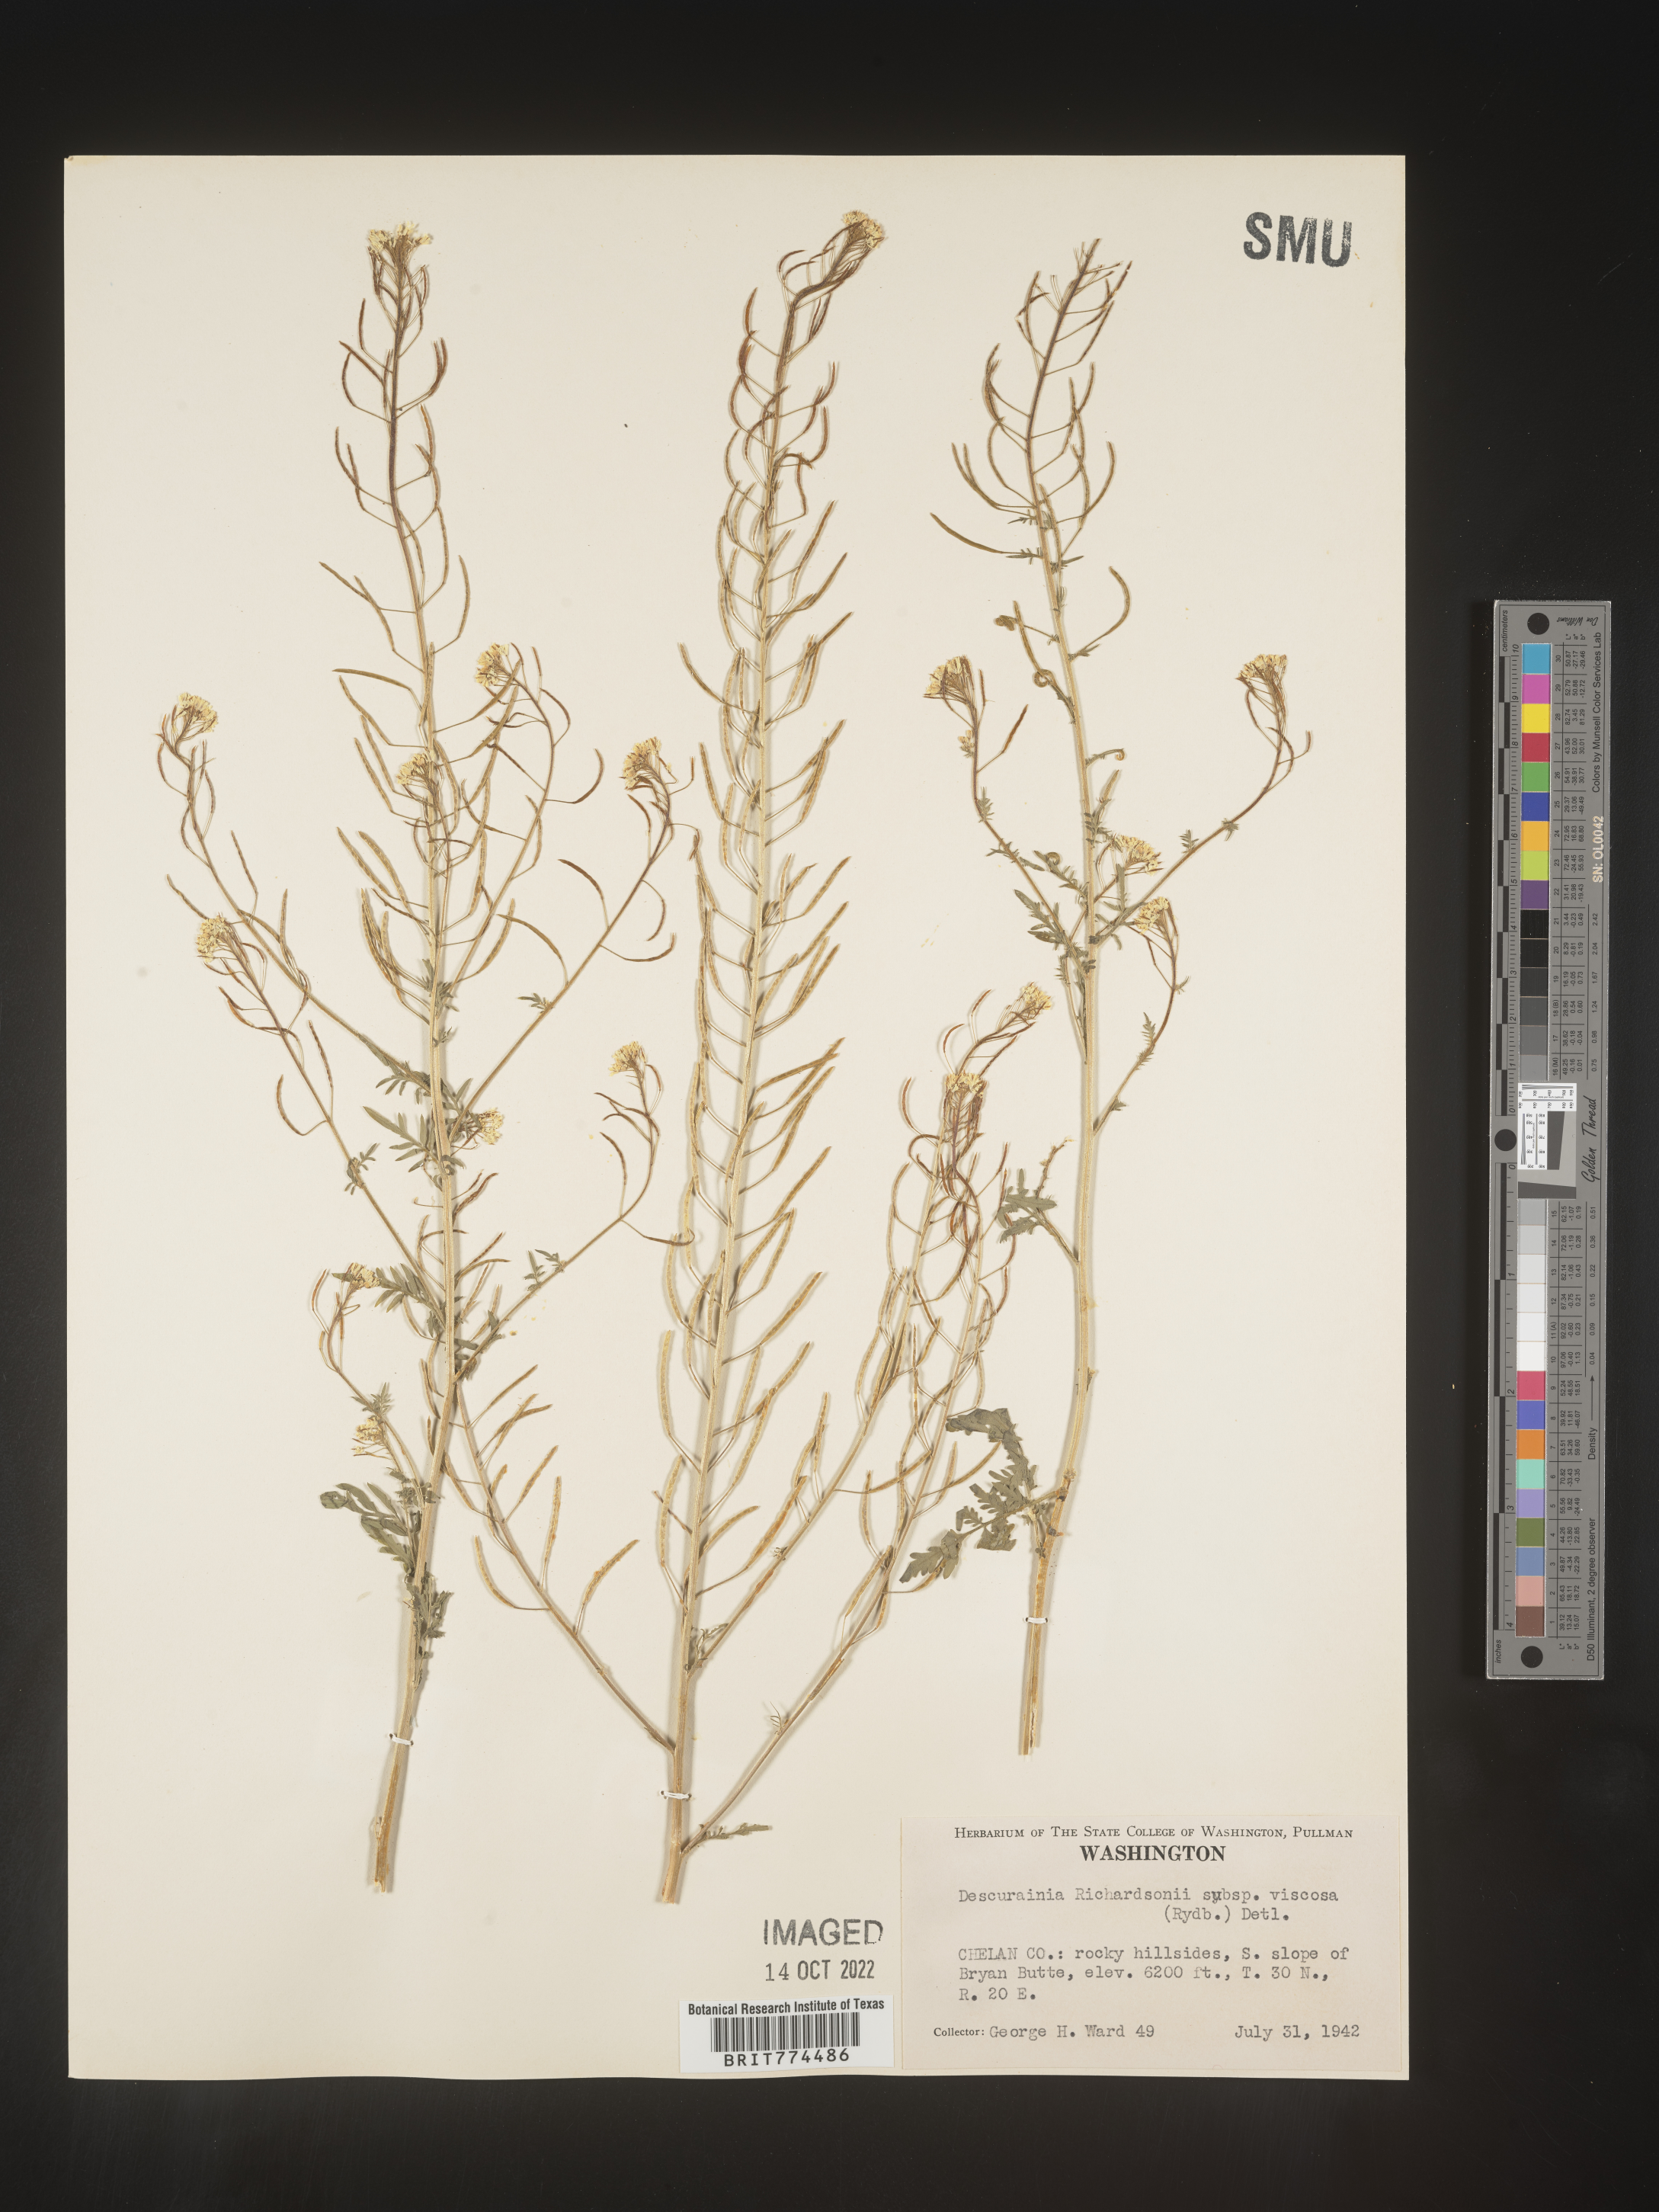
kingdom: Plantae
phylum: Tracheophyta
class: Magnoliopsida
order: Brassicales
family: Brassicaceae
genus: Descurainia
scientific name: Descurainia
